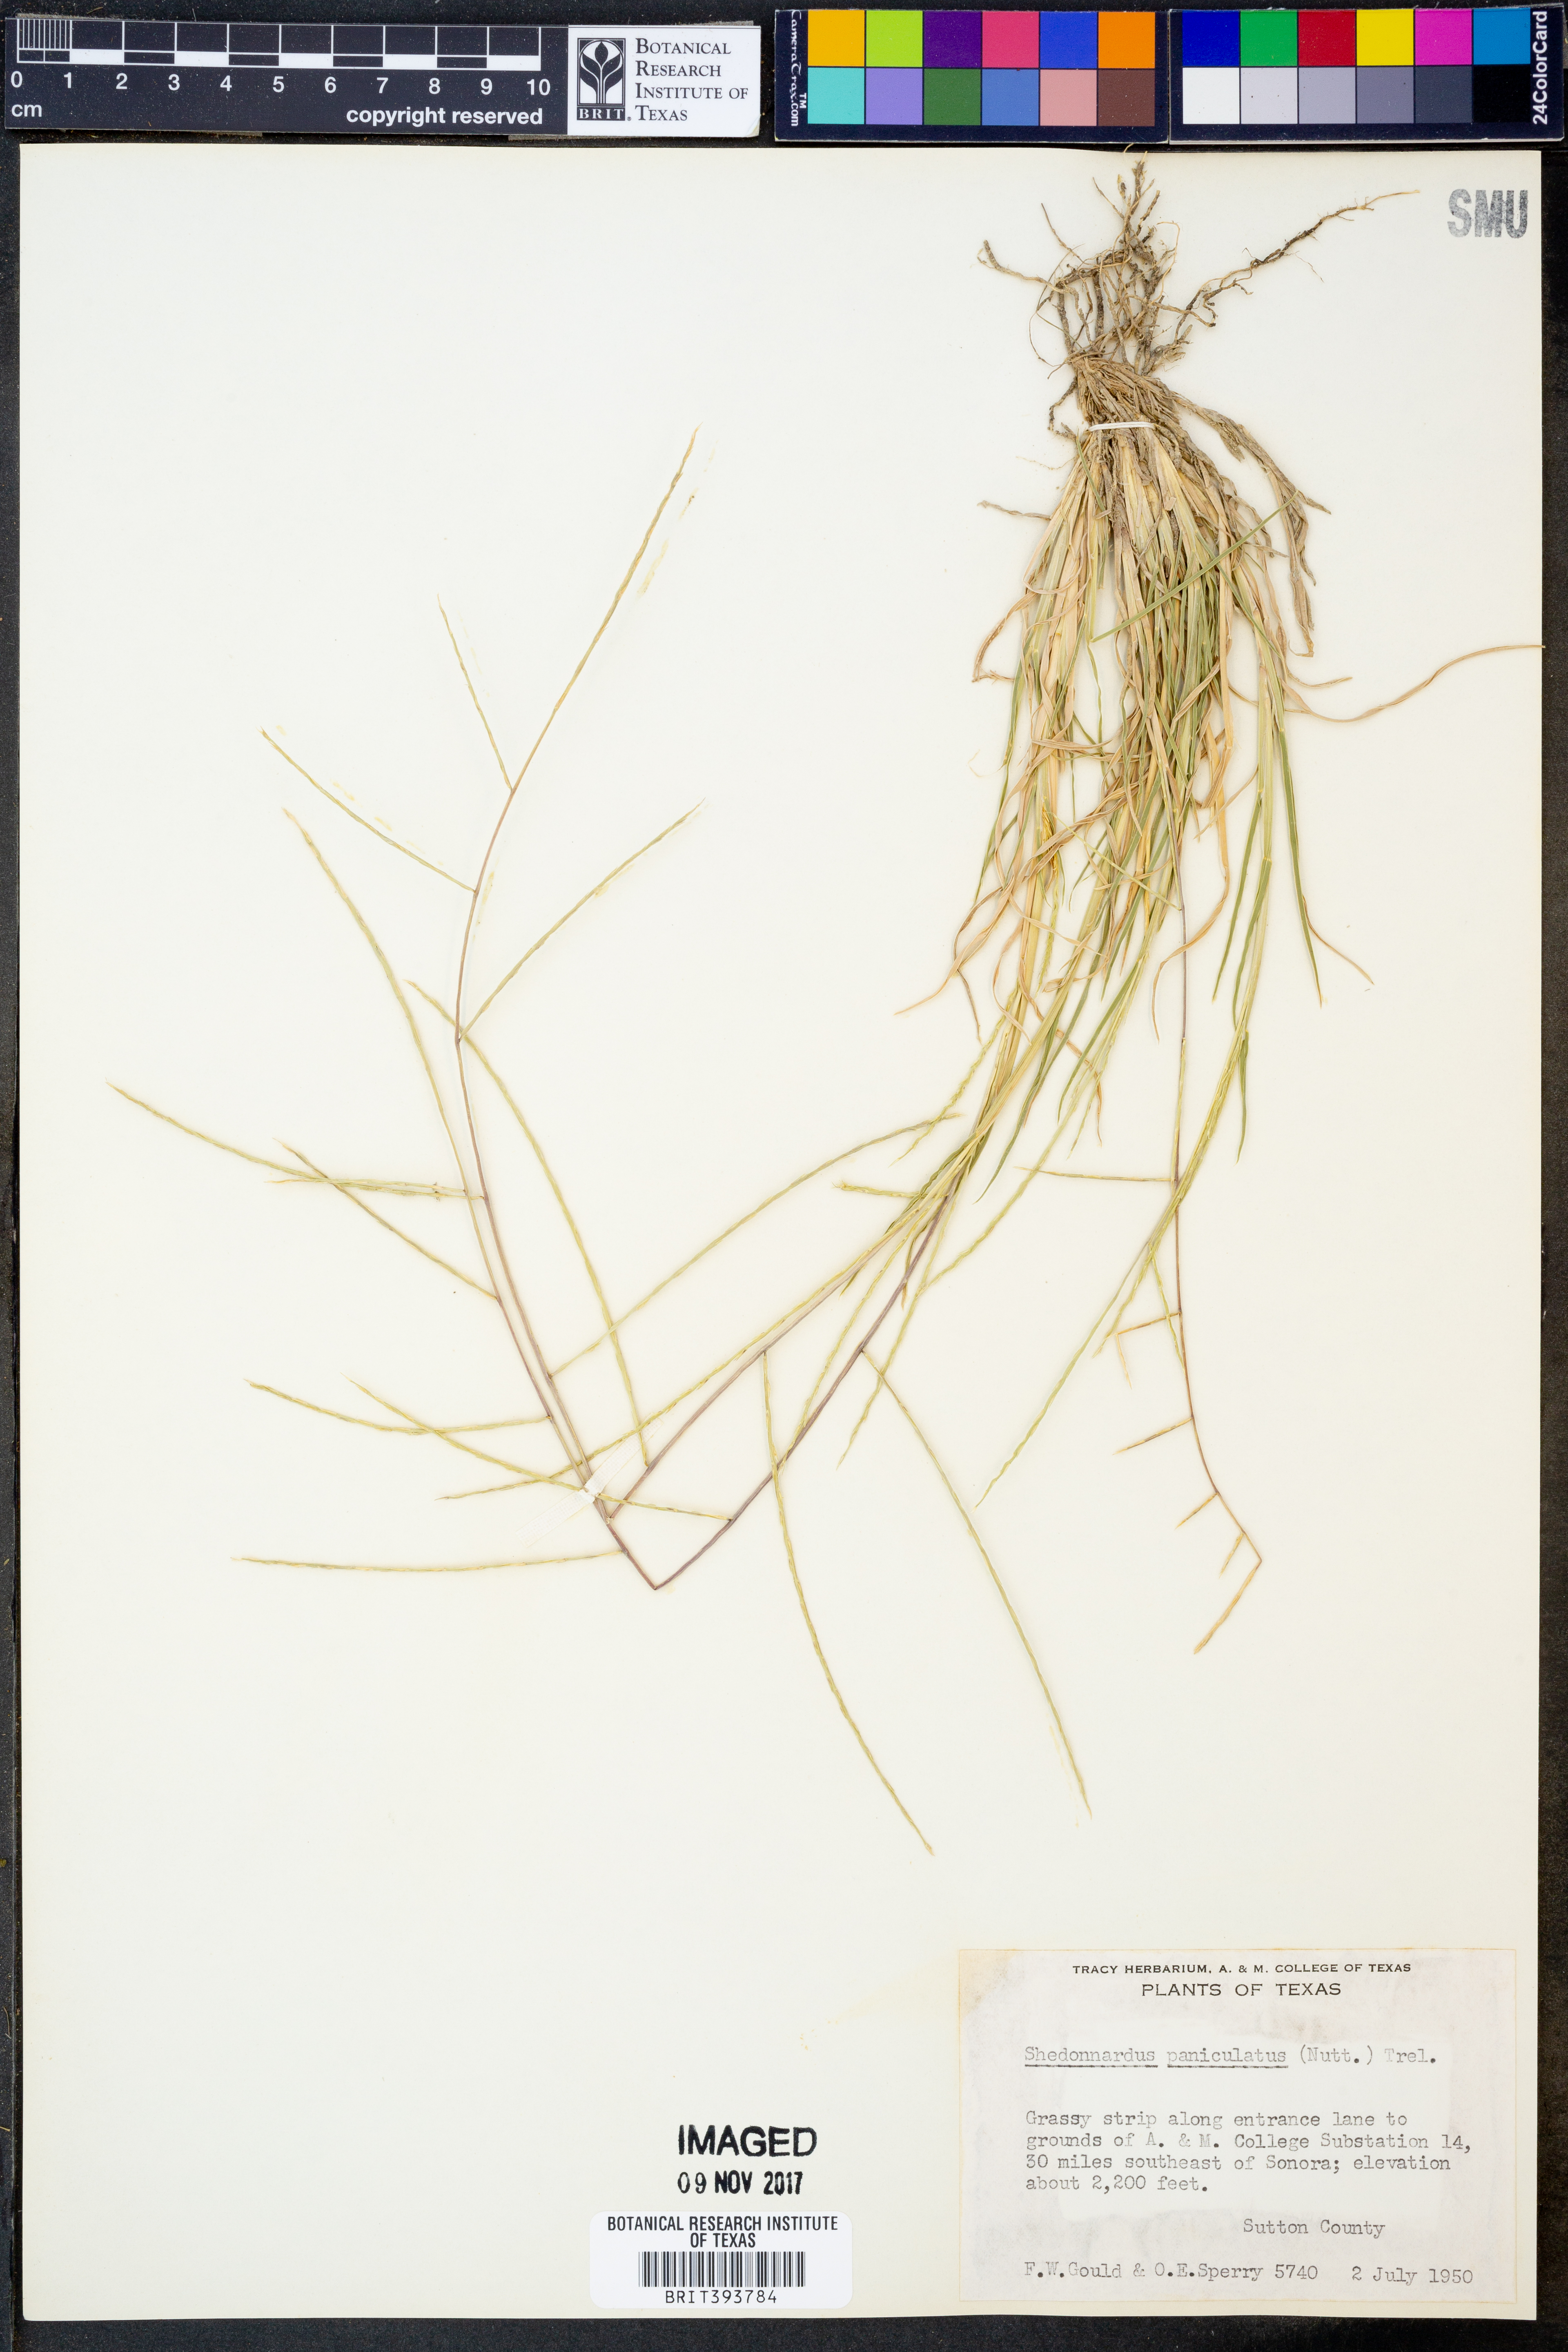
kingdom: Plantae
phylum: Tracheophyta
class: Liliopsida
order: Poales
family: Poaceae
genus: Muhlenbergia
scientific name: Muhlenbergia paniculata
